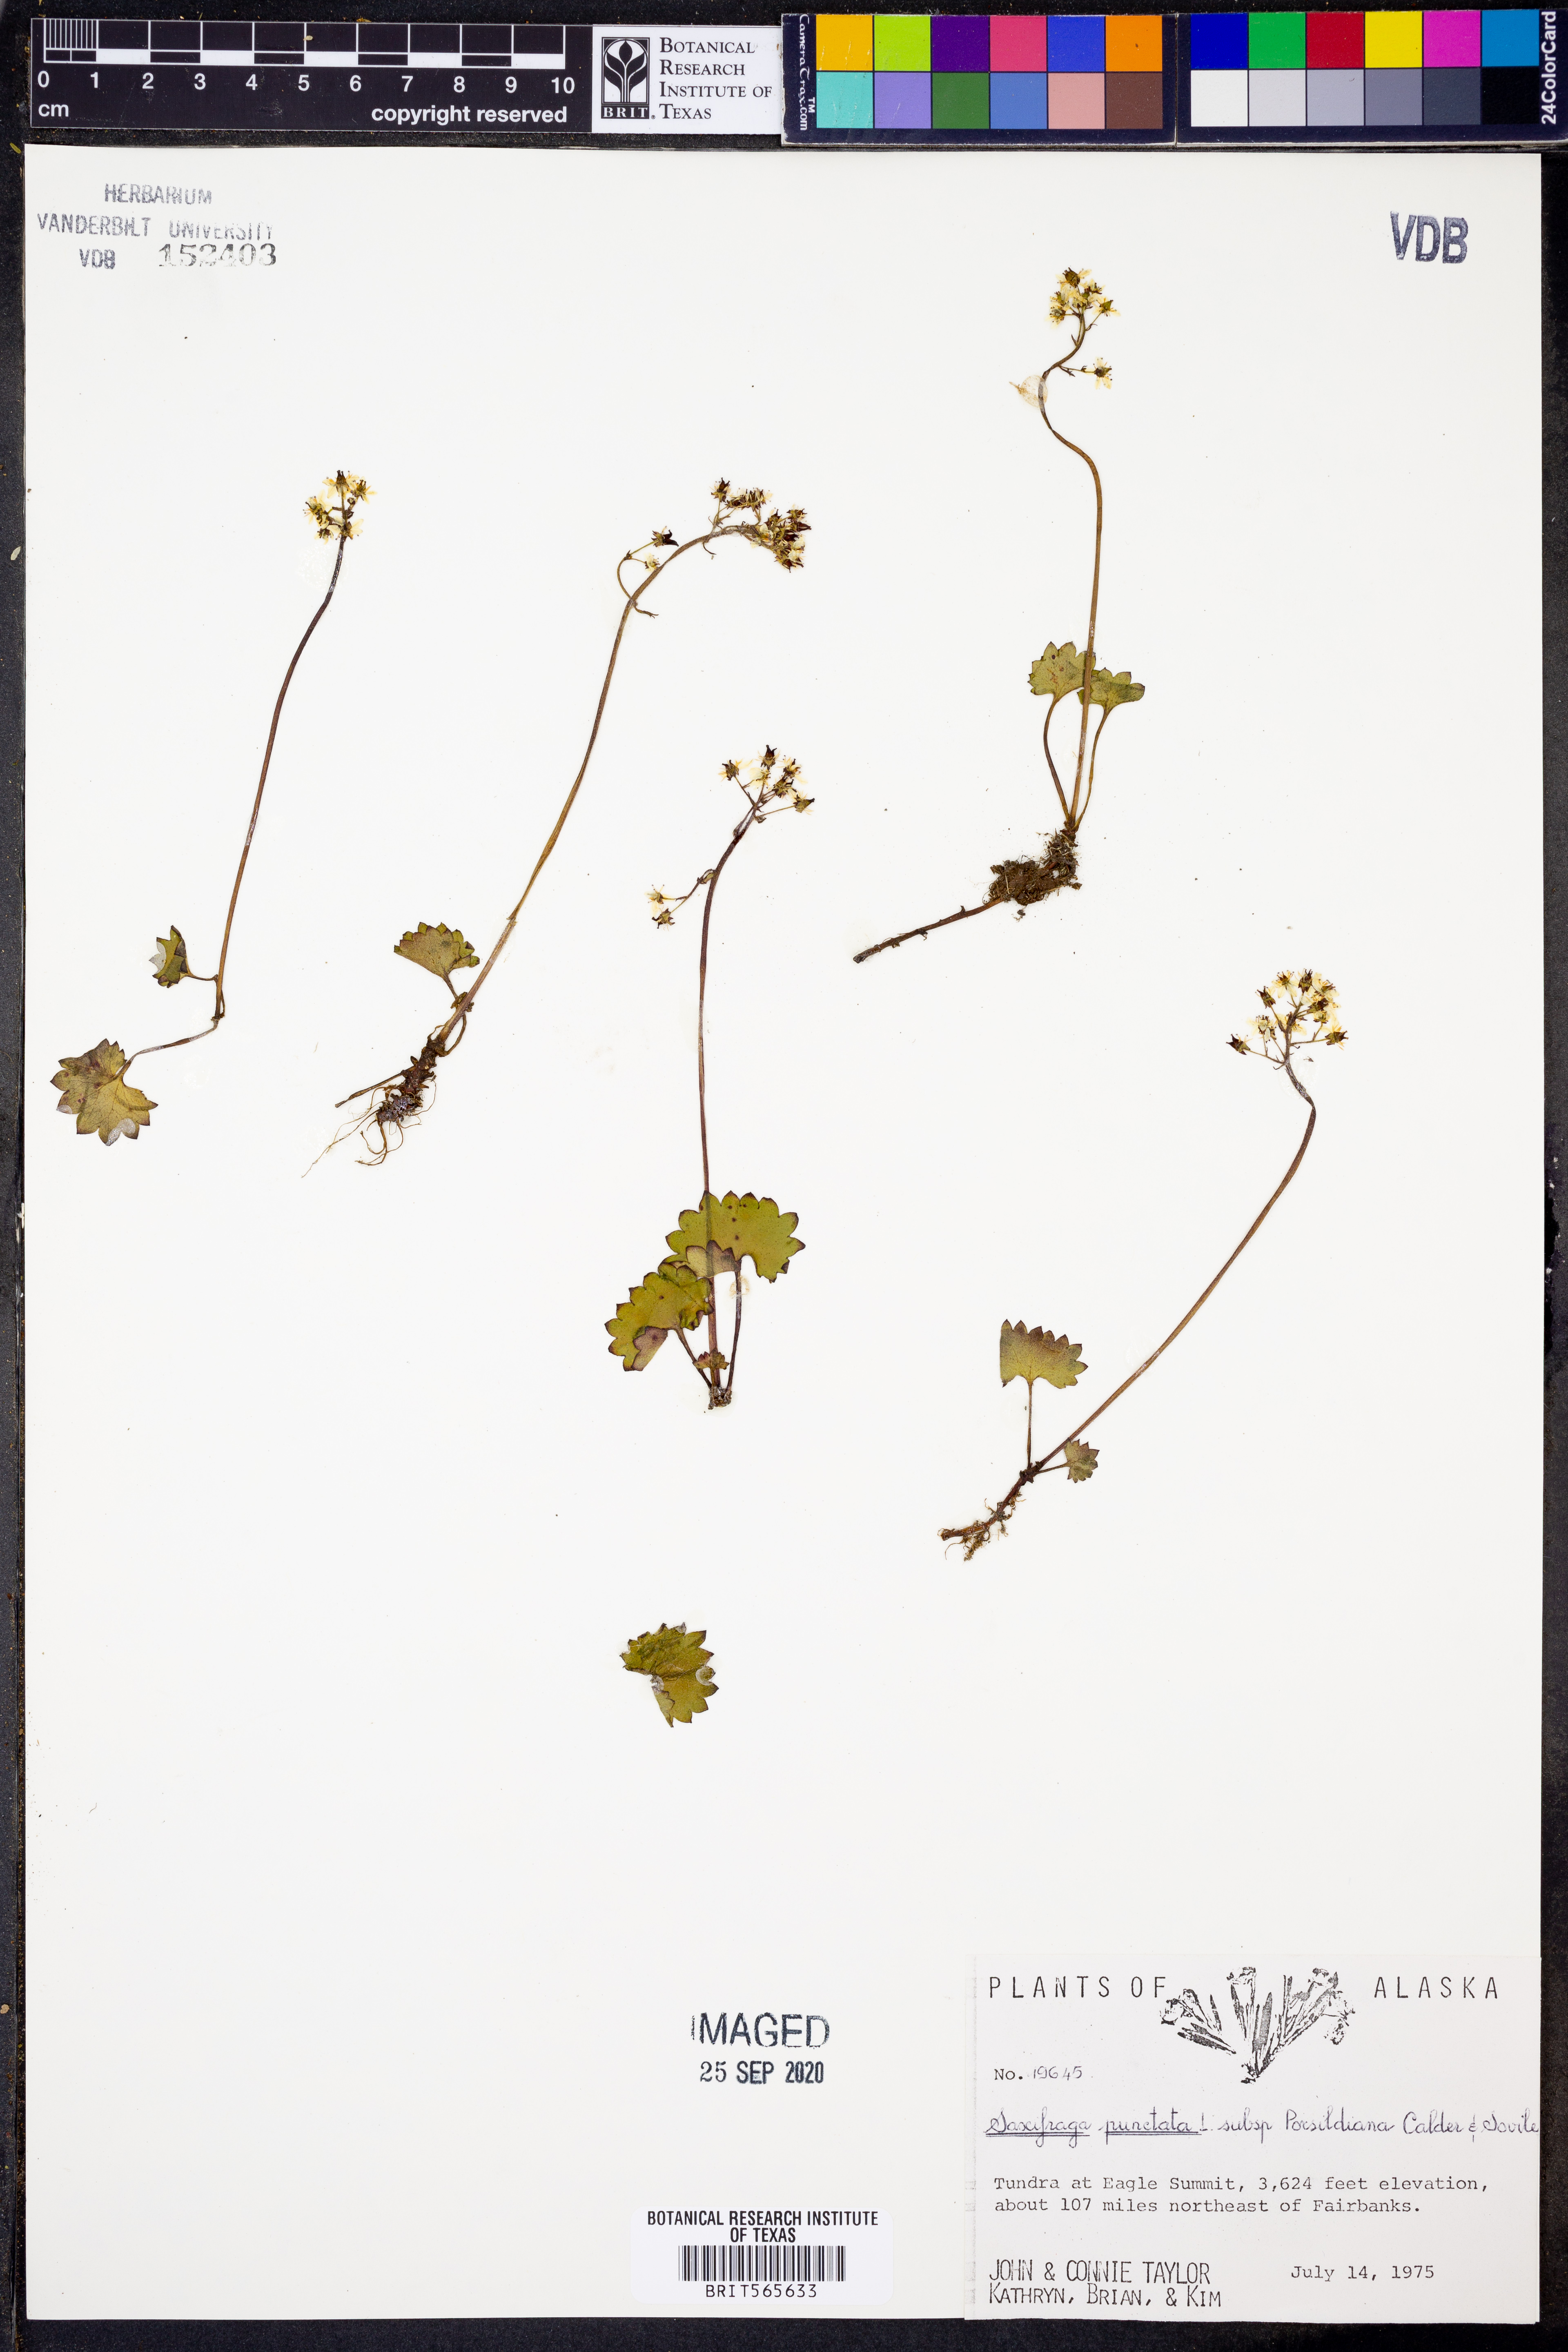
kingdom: Plantae
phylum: Tracheophyta
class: Magnoliopsida
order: Saxifragales
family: Saxifragaceae
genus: Micranthes
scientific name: Micranthes nelsoniana
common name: Nelson's saxifrage
